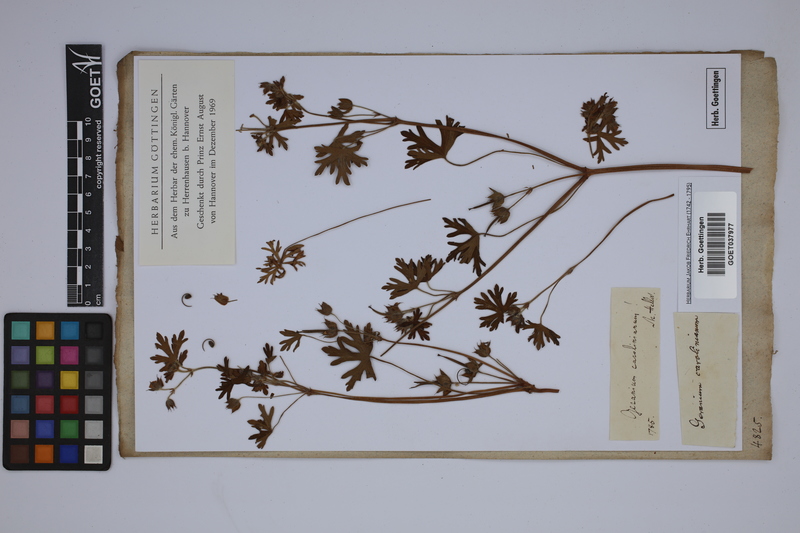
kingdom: Plantae
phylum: Tracheophyta
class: Magnoliopsida
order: Geraniales
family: Geraniaceae
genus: Geranium
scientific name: Geranium carolinianum
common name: Carolina crane's-bill
